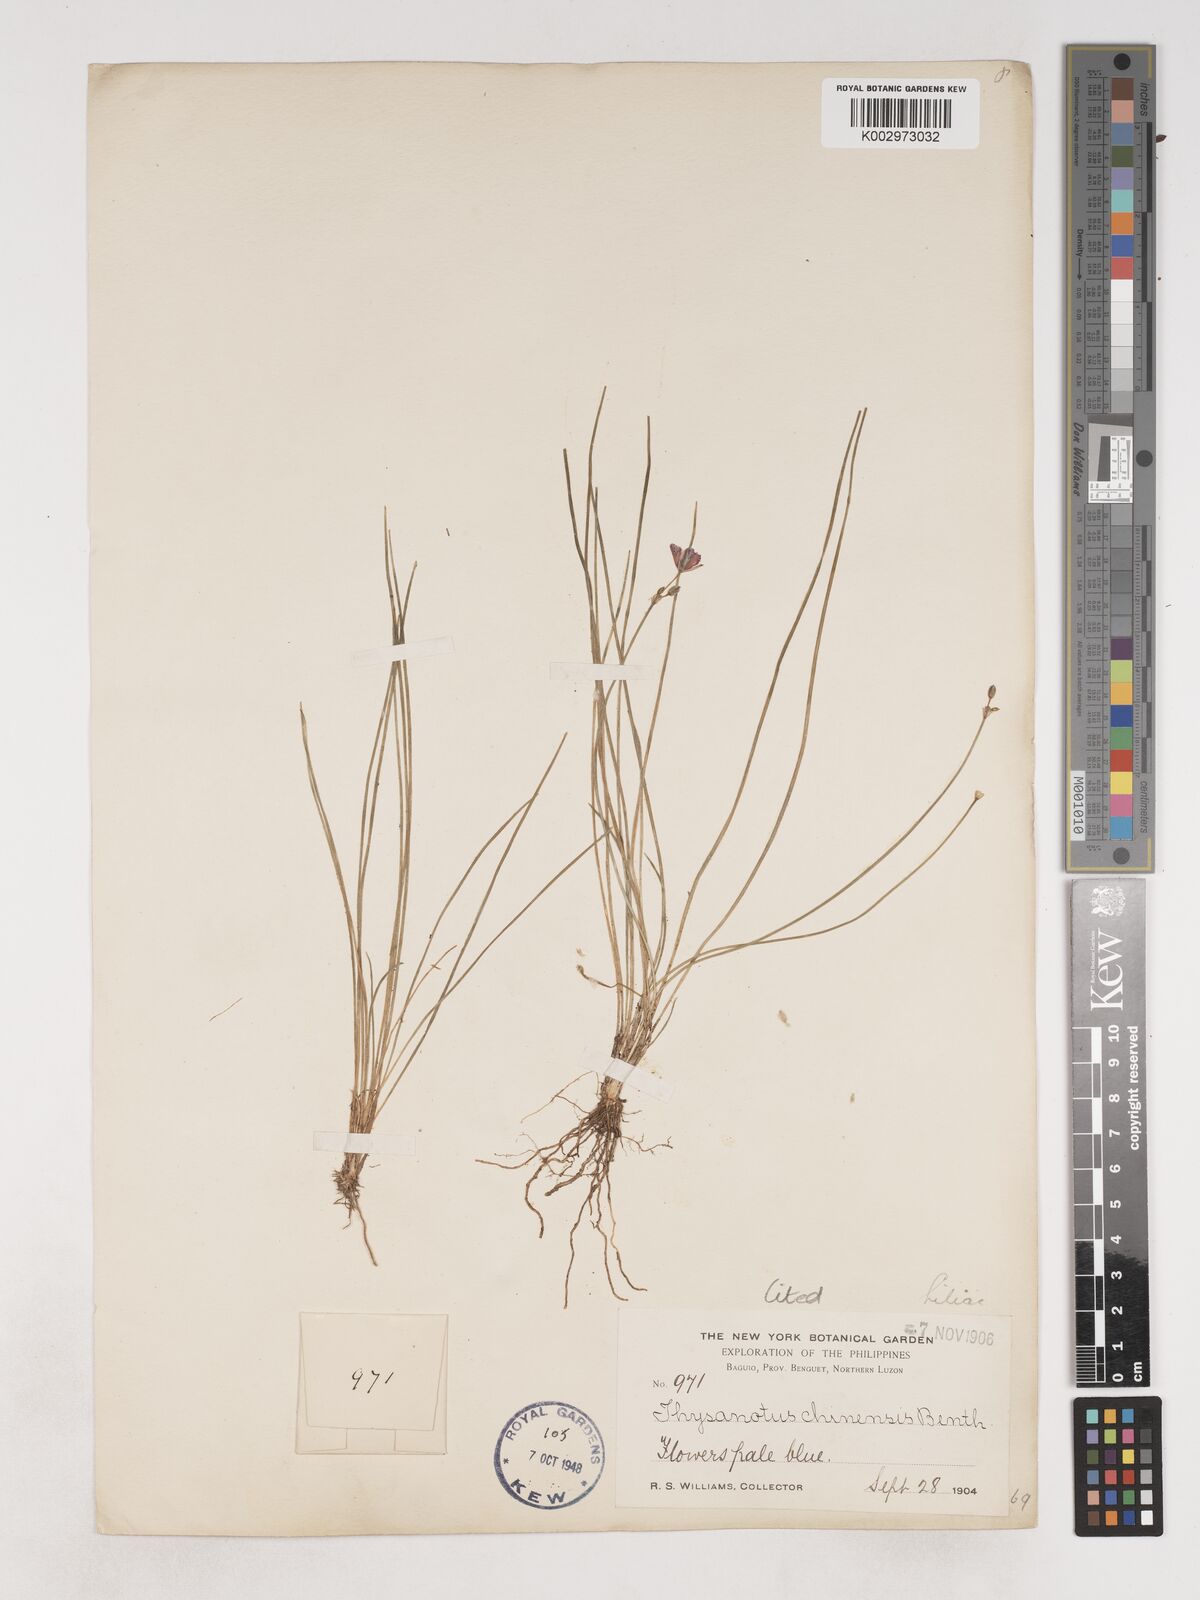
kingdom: Plantae
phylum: Tracheophyta
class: Liliopsida
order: Asparagales
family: Asparagaceae
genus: Thysanotus
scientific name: Thysanotus chinensis
